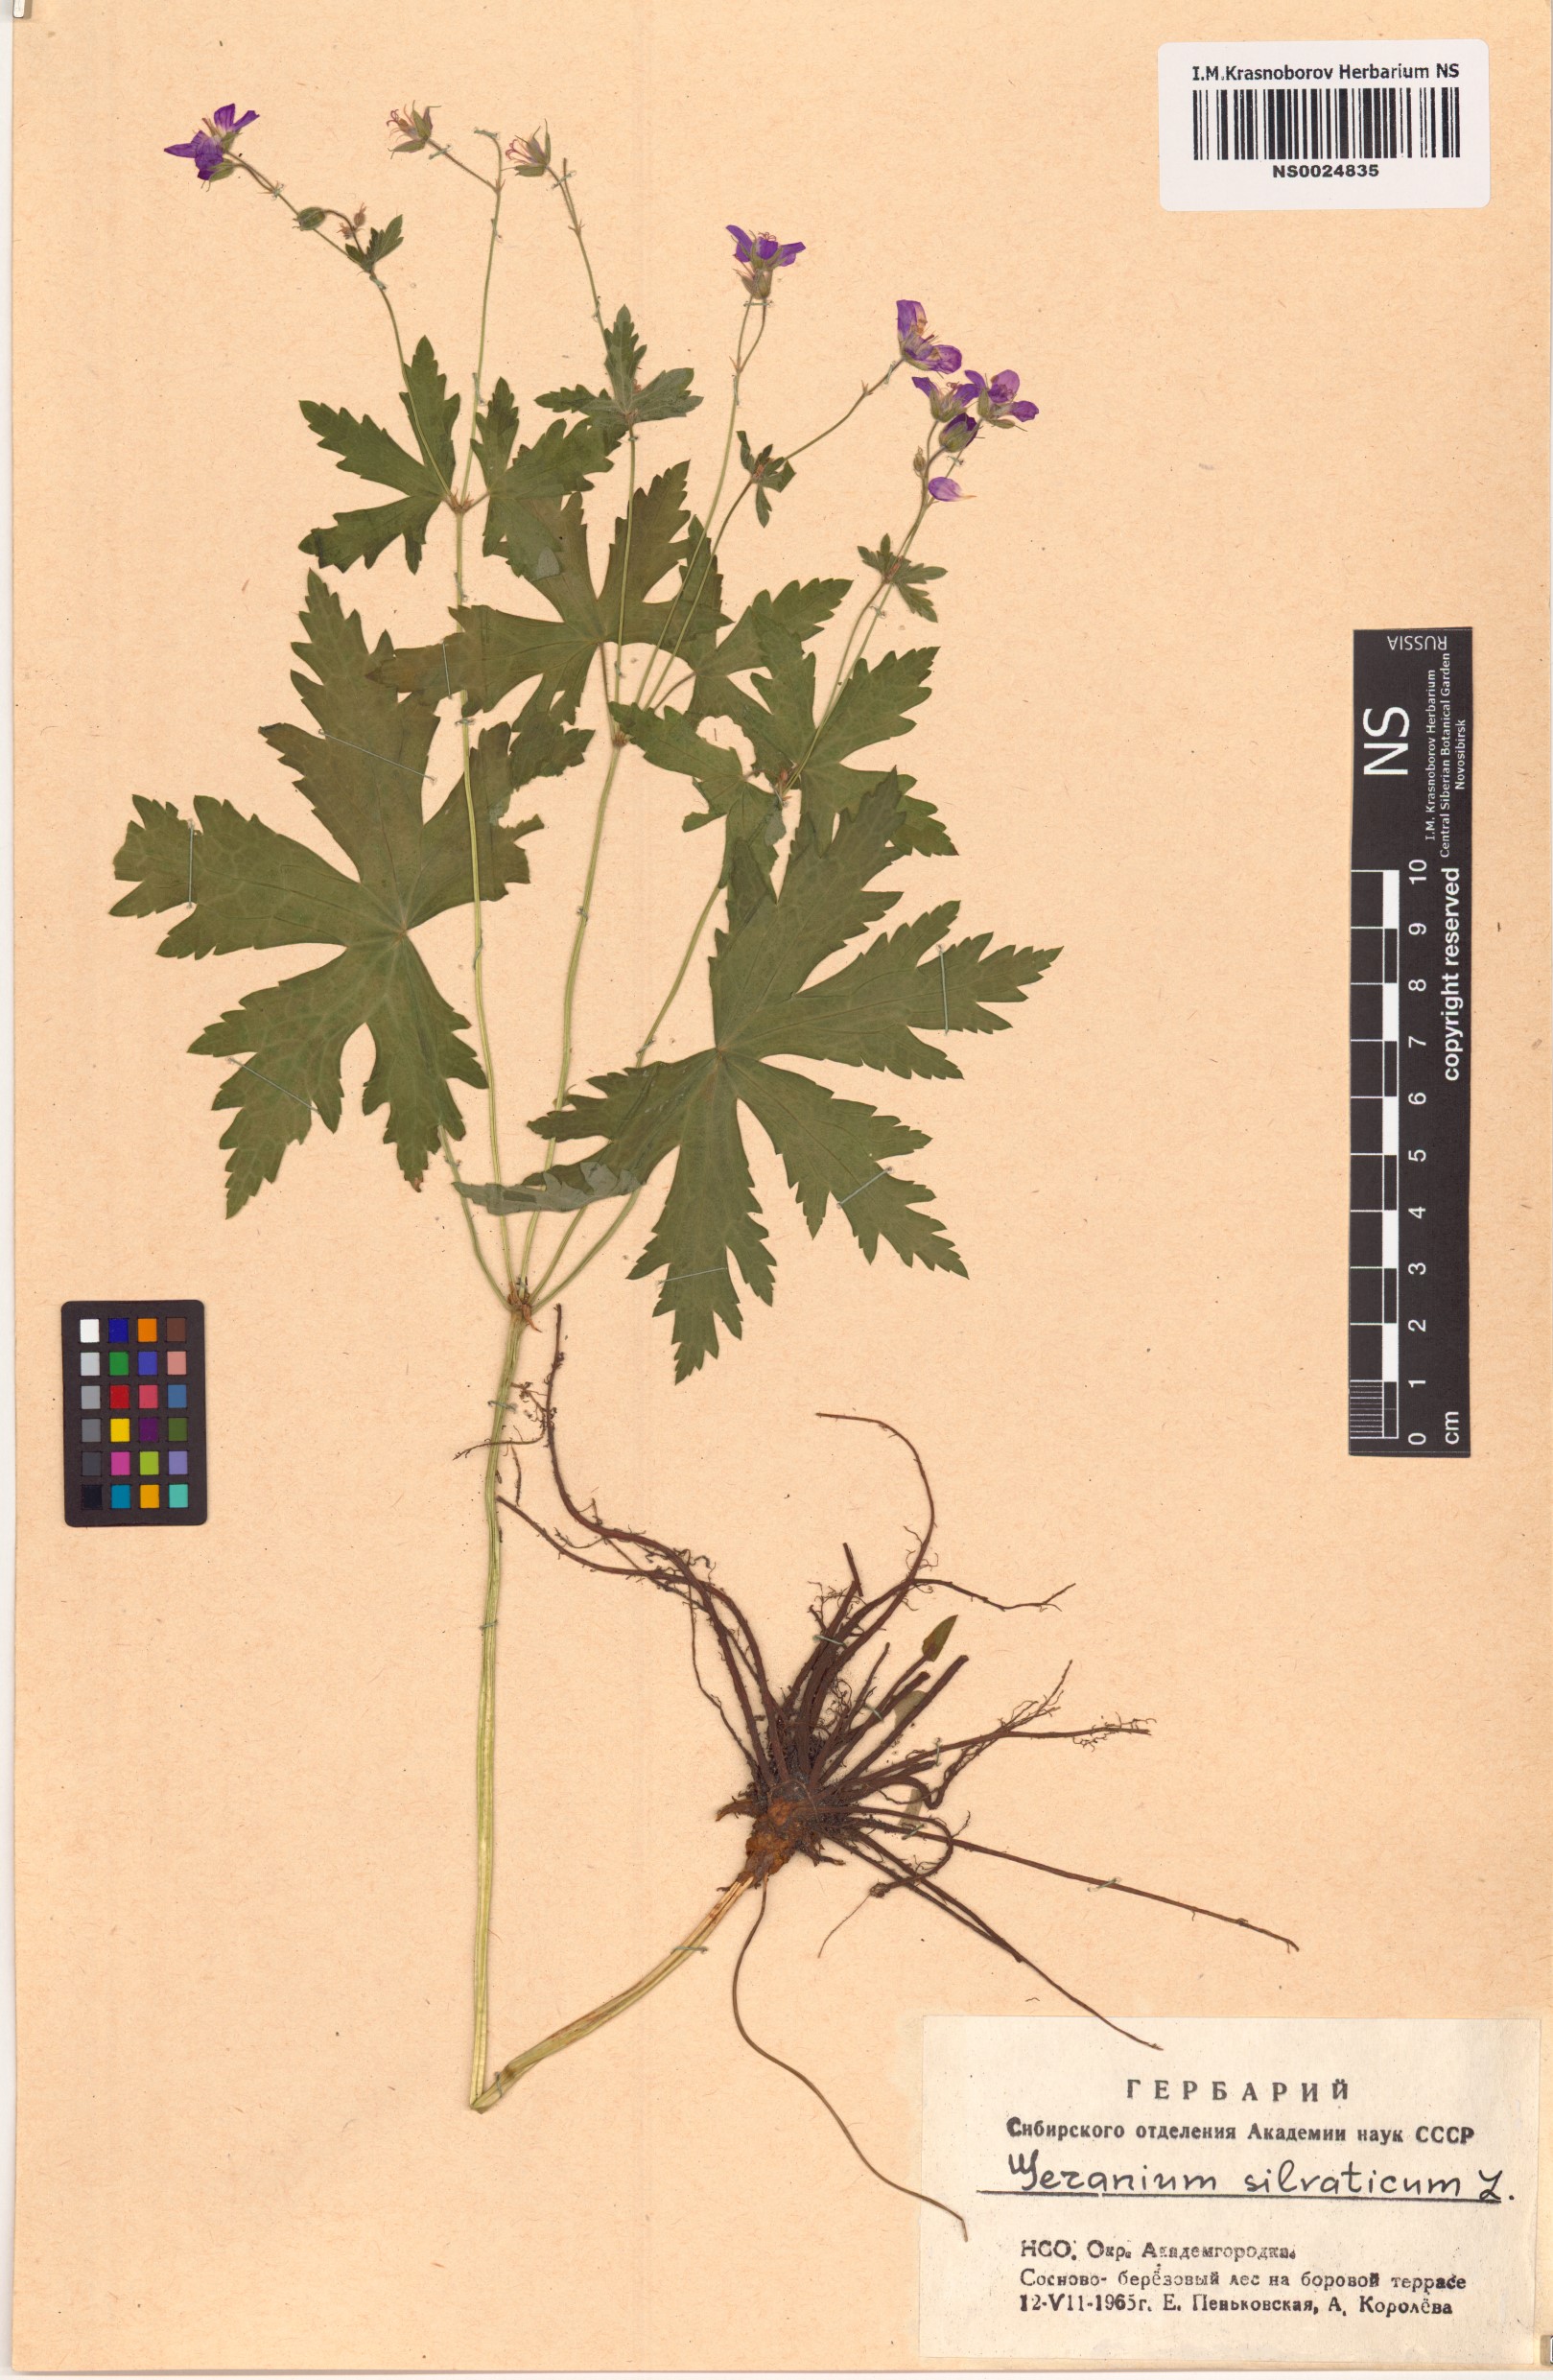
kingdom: Plantae
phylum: Tracheophyta
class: Magnoliopsida
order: Geraniales
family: Geraniaceae
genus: Geranium
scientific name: Geranium sylvaticum
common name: Wood crane's-bill
